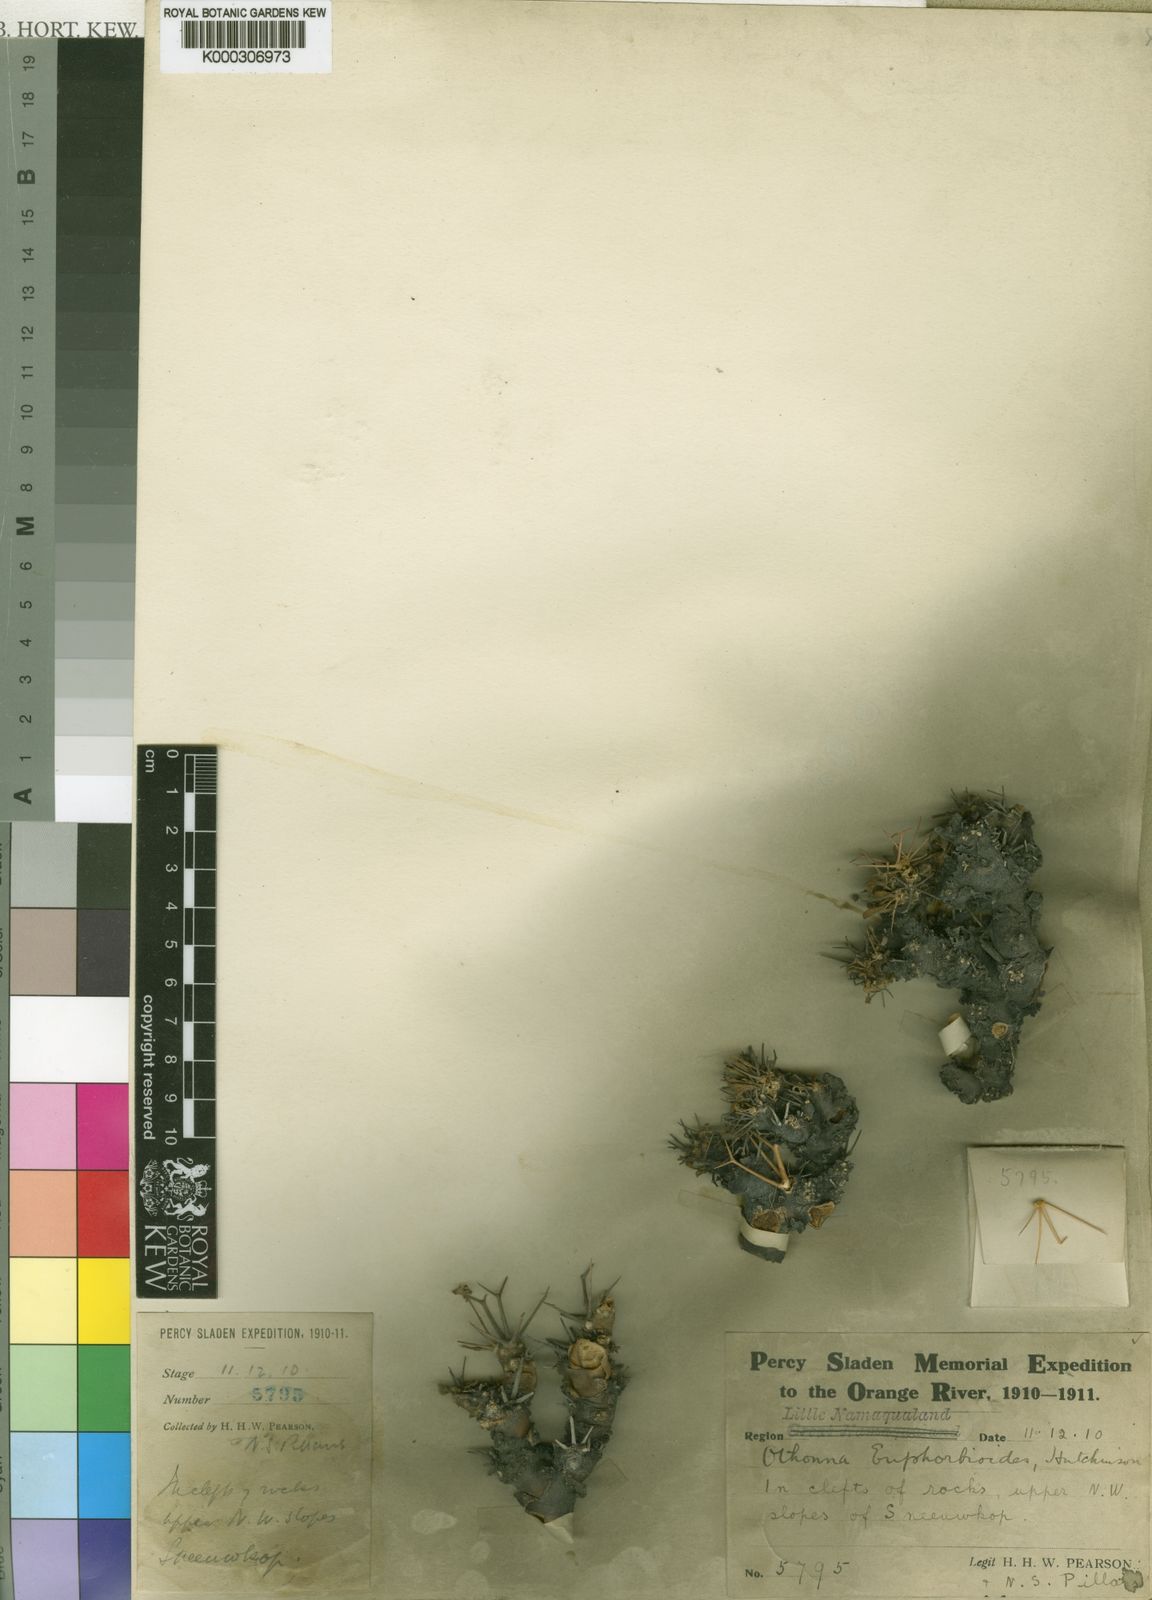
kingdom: Plantae
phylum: Tracheophyta
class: Magnoliopsida
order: Asterales
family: Asteraceae
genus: Othonna
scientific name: Othonna euphorbioides
